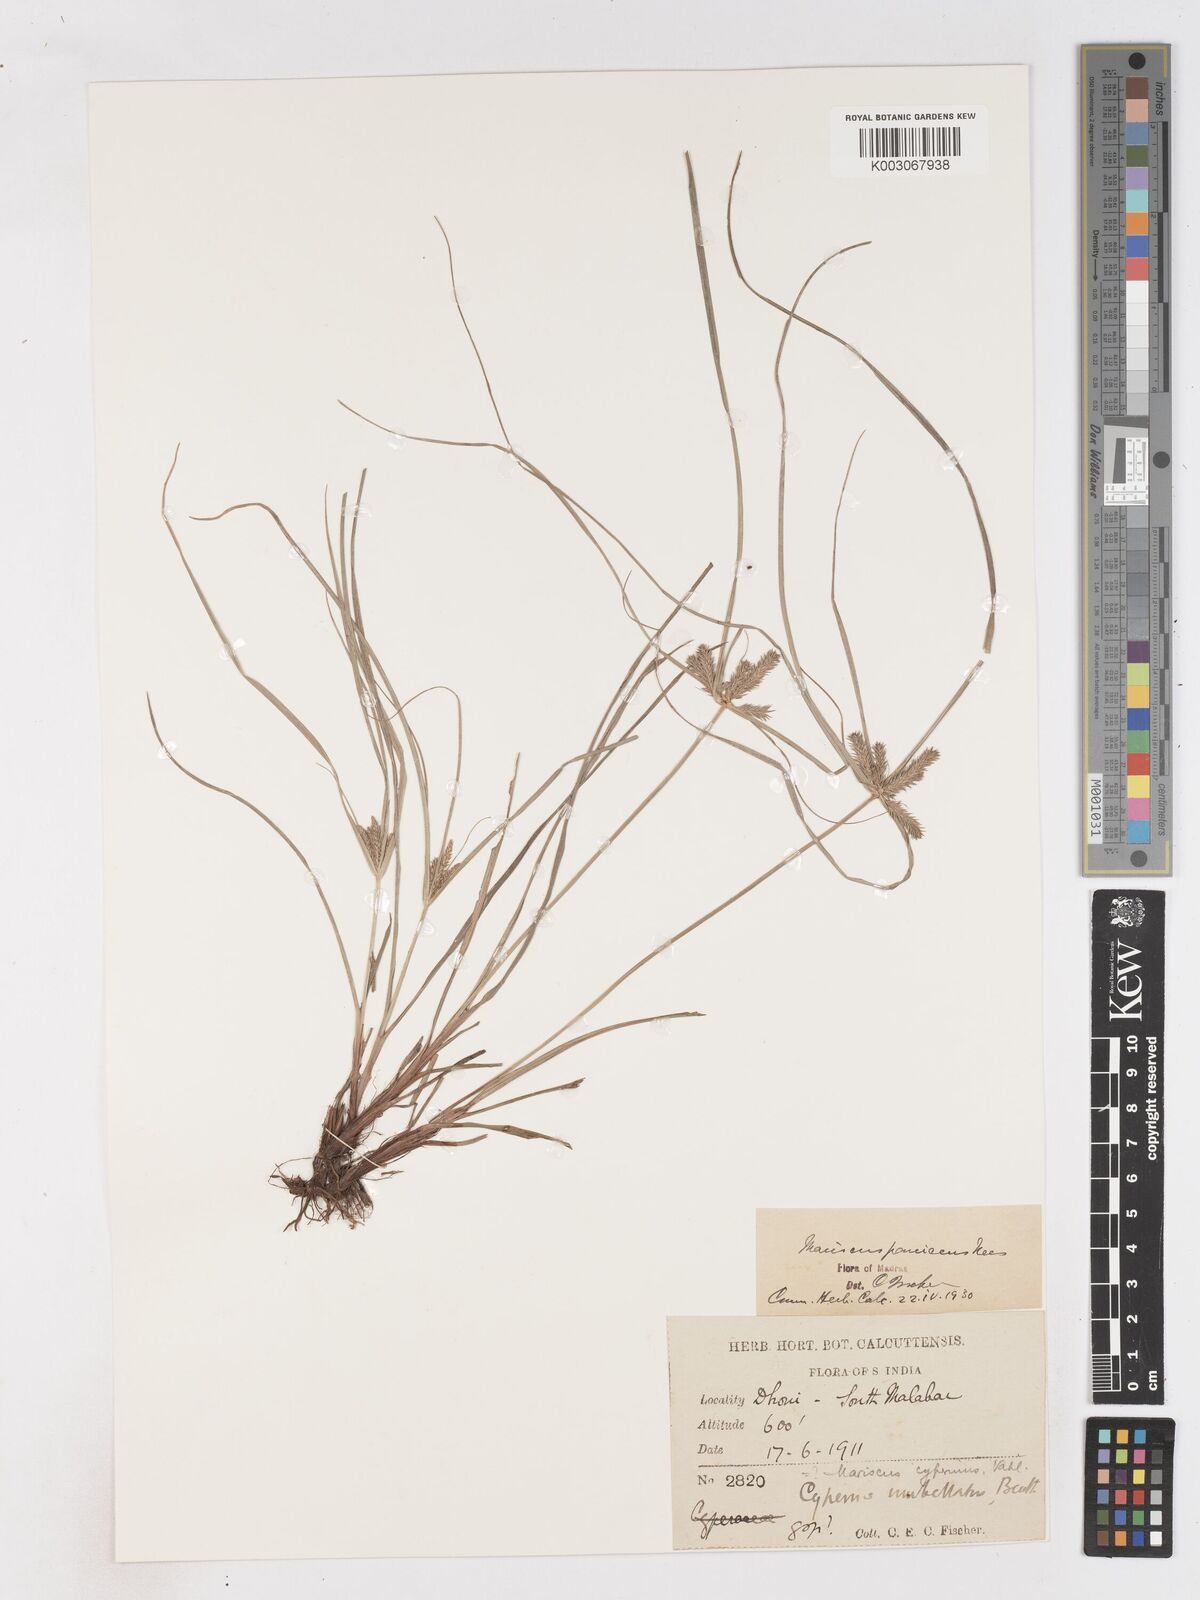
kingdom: Plantae
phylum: Tracheophyta
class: Liliopsida
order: Poales
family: Cyperaceae
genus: Cyperus
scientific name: Cyperus paniceus
